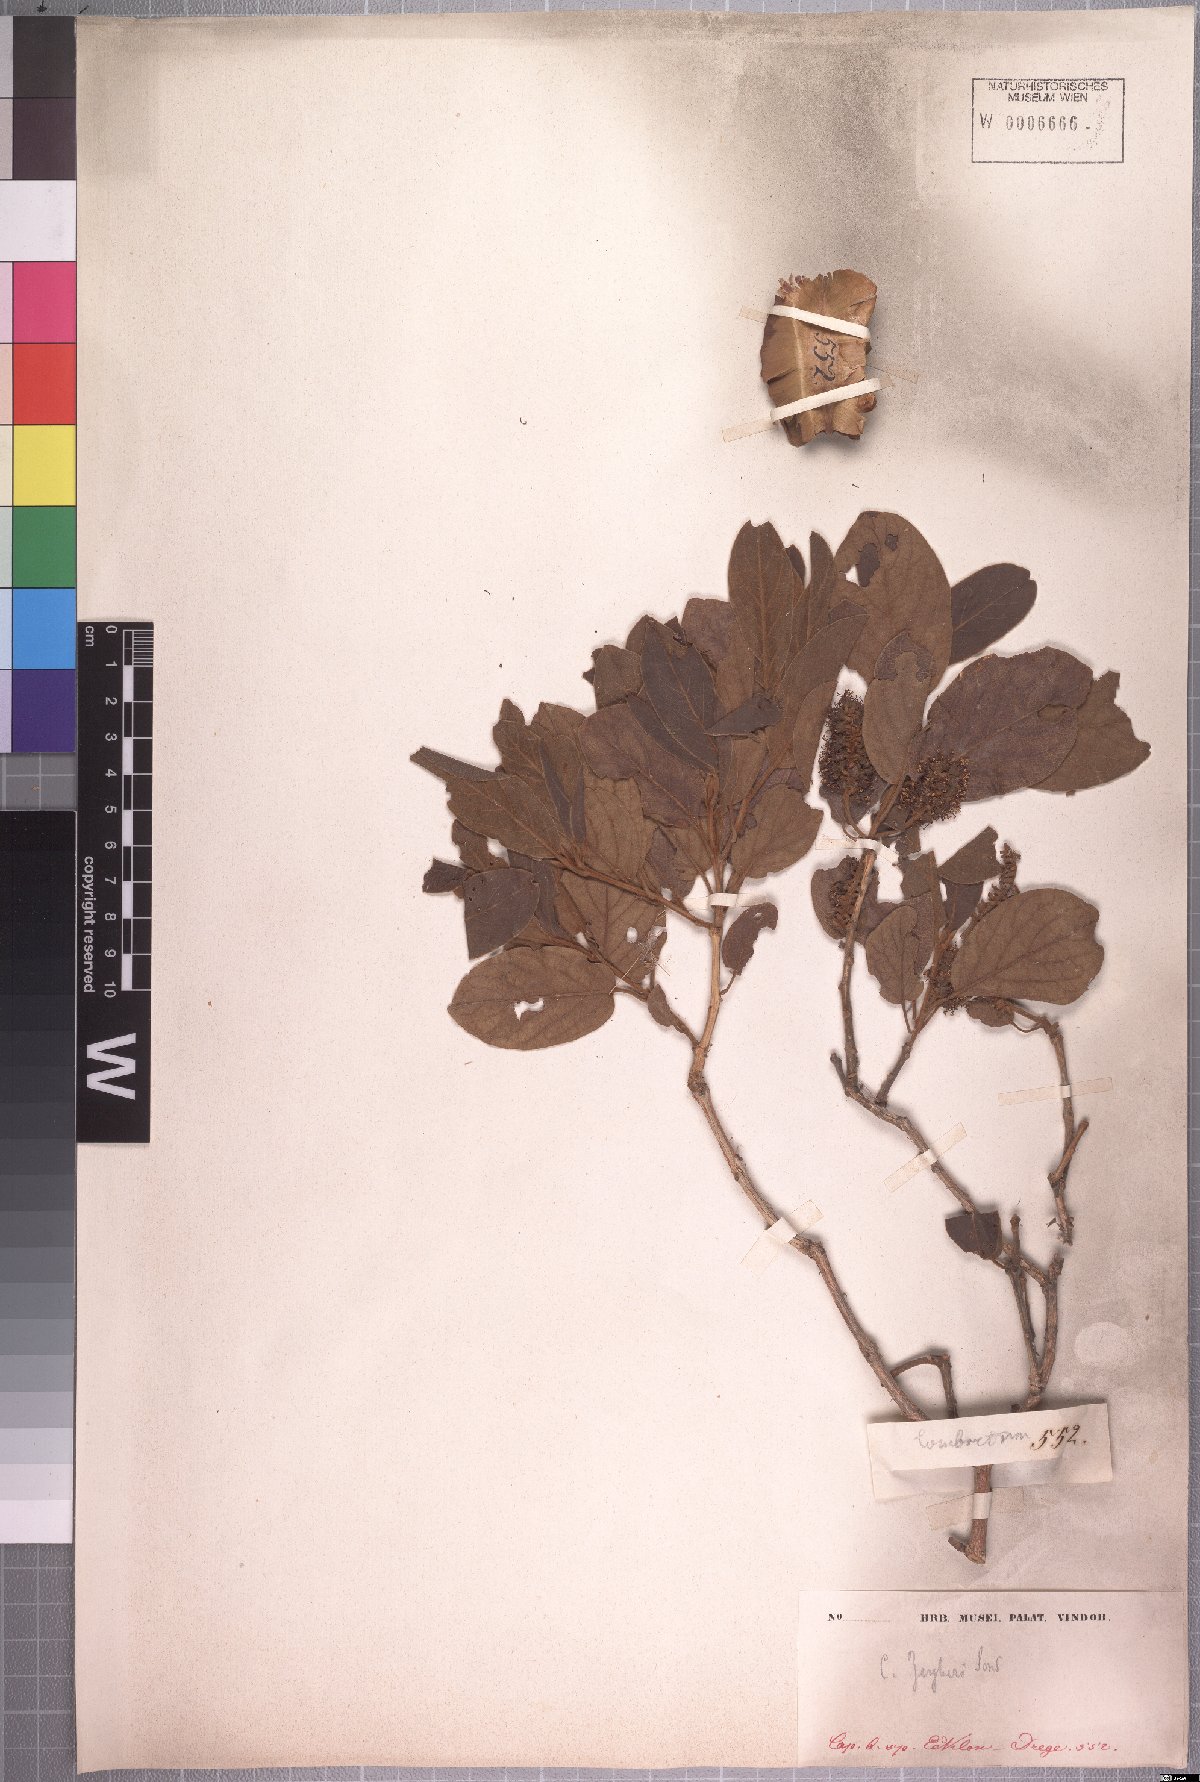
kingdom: Plantae
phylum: Tracheophyta
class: Magnoliopsida
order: Myrtales
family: Combretaceae
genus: Combretum
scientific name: Combretum zeyheri
